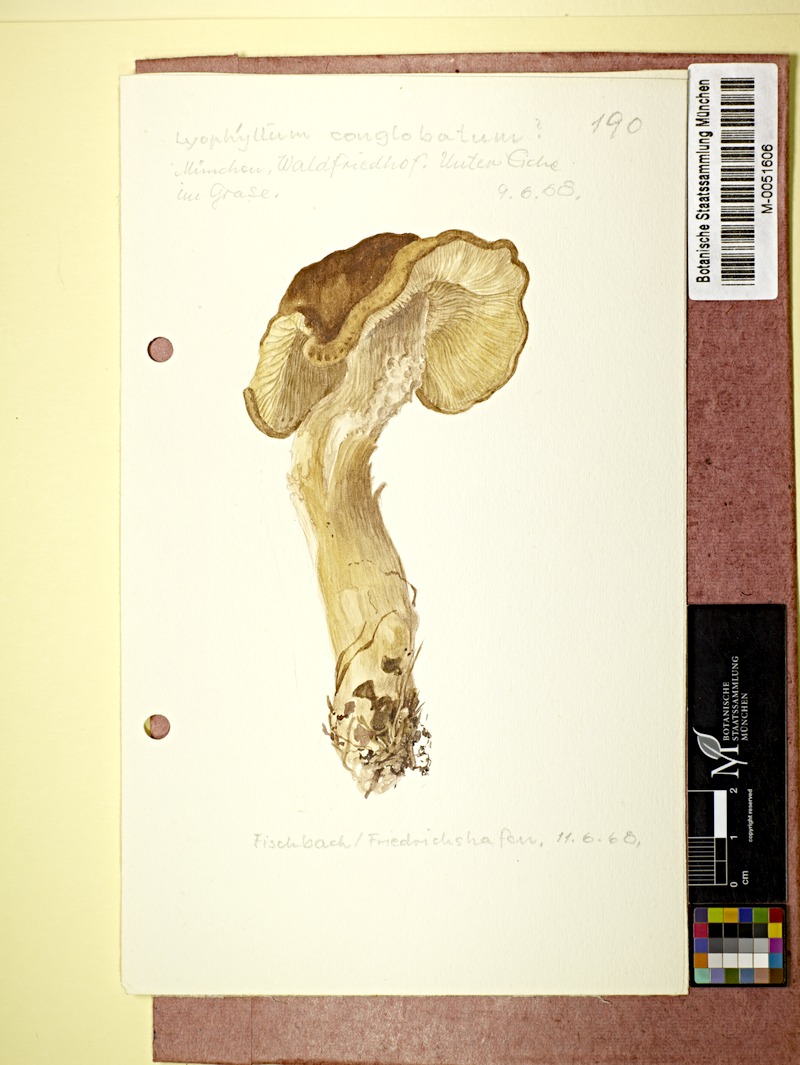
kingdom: Fungi
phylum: Basidiomycota
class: Agaricomycetes
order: Agaricales
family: Lyophyllaceae
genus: Lyophyllum
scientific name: Lyophyllum loricatum
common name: Gristly domecap
